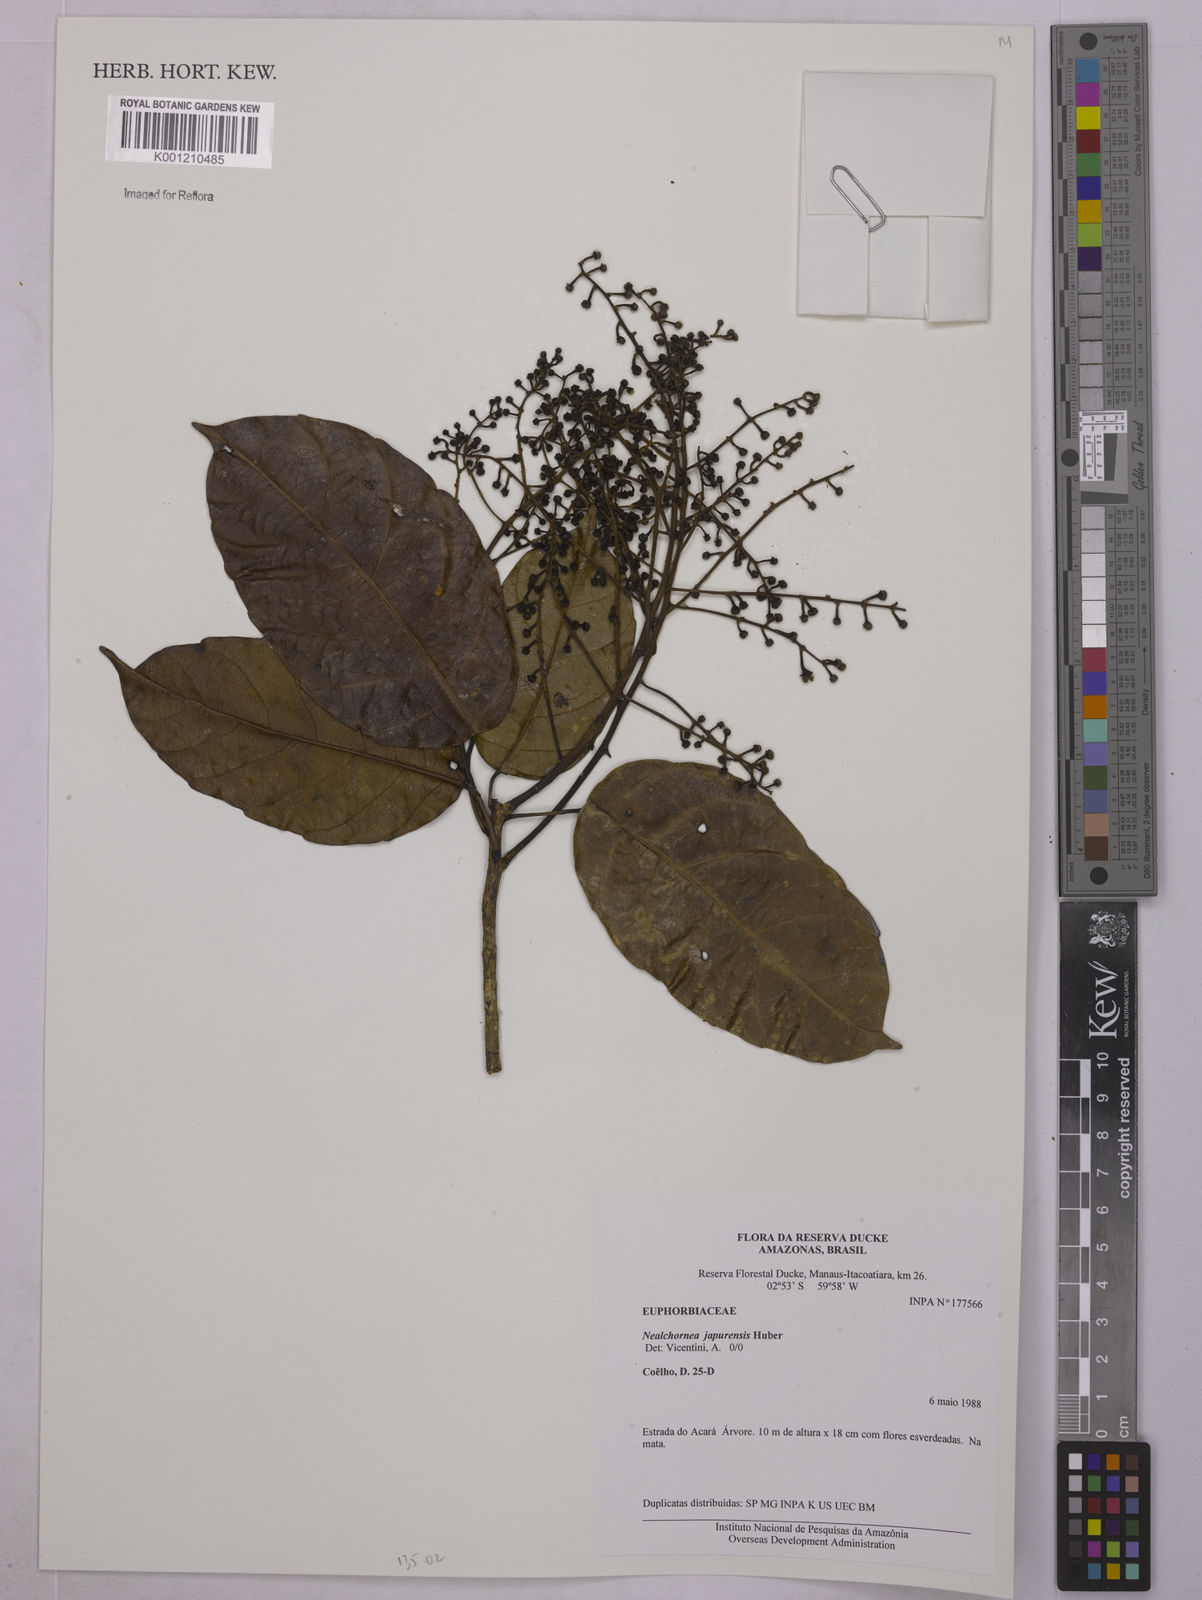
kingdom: Plantae
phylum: Tracheophyta
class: Magnoliopsida
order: Malpighiales
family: Euphorbiaceae
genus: Nealchornea
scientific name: Nealchornea yapurensis
